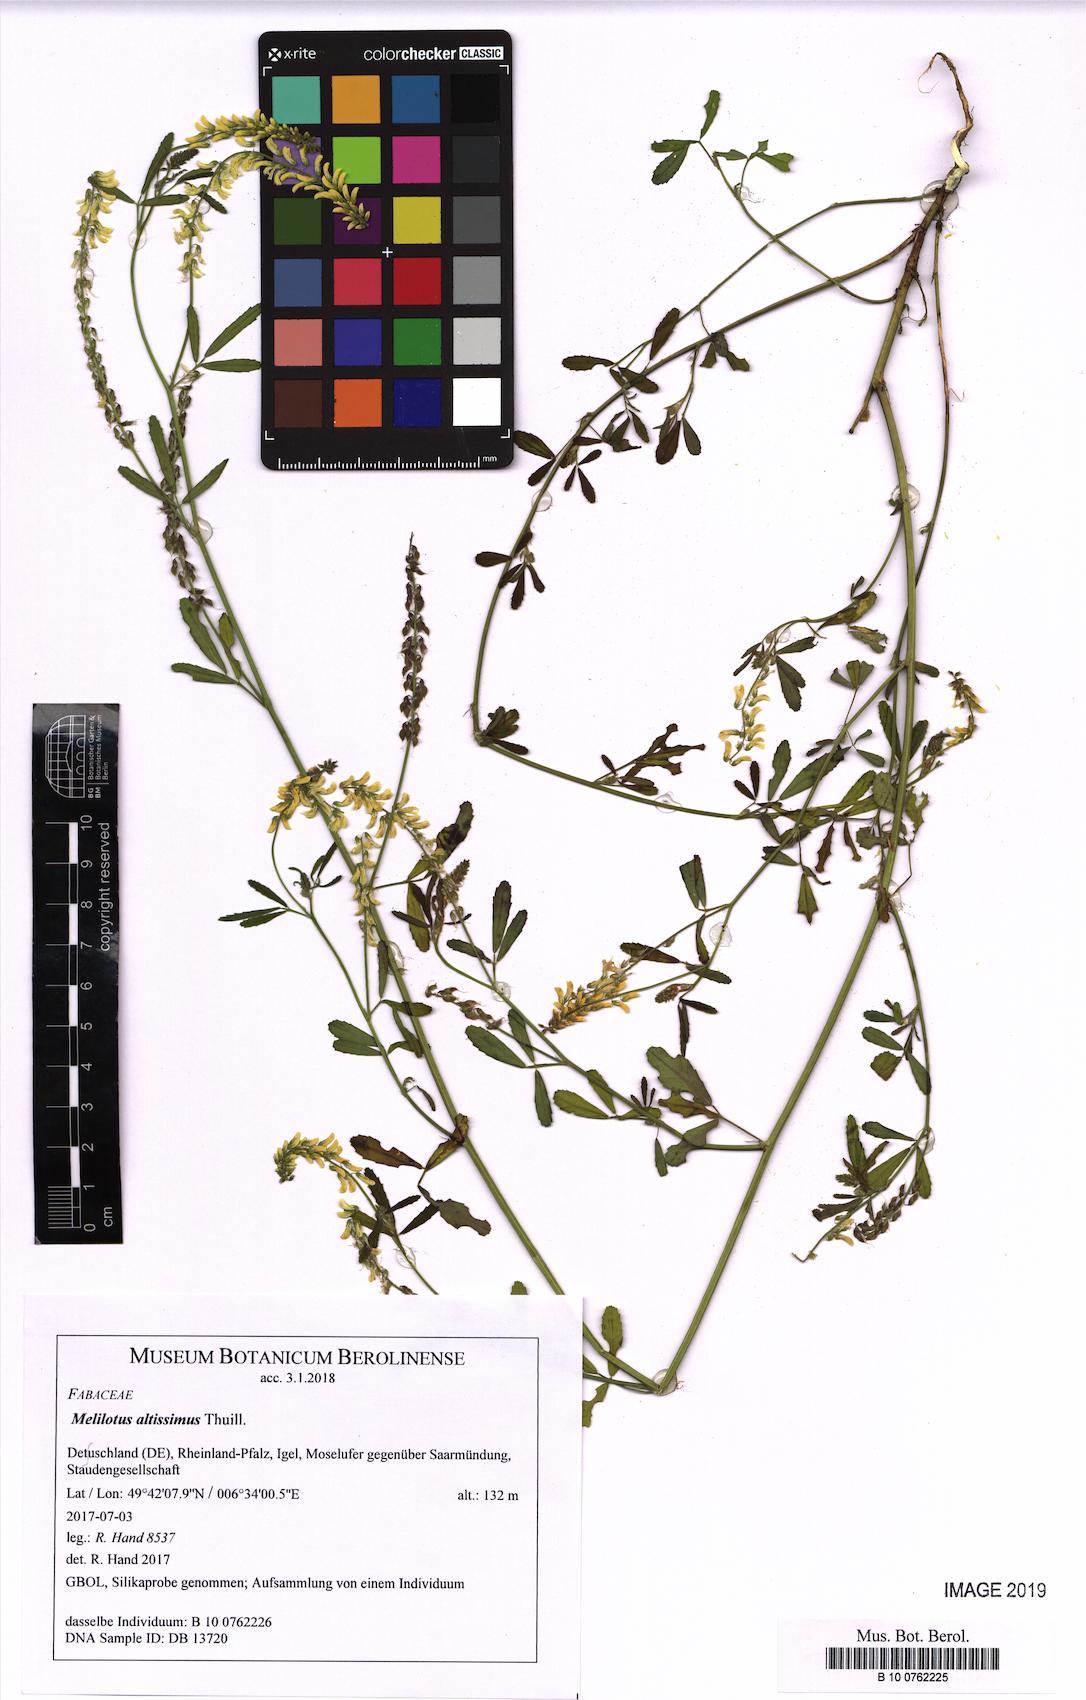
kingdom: Plantae
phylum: Tracheophyta
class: Magnoliopsida
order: Fabales
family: Fabaceae
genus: Melilotus
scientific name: Melilotus altissimus
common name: Tall melilot
